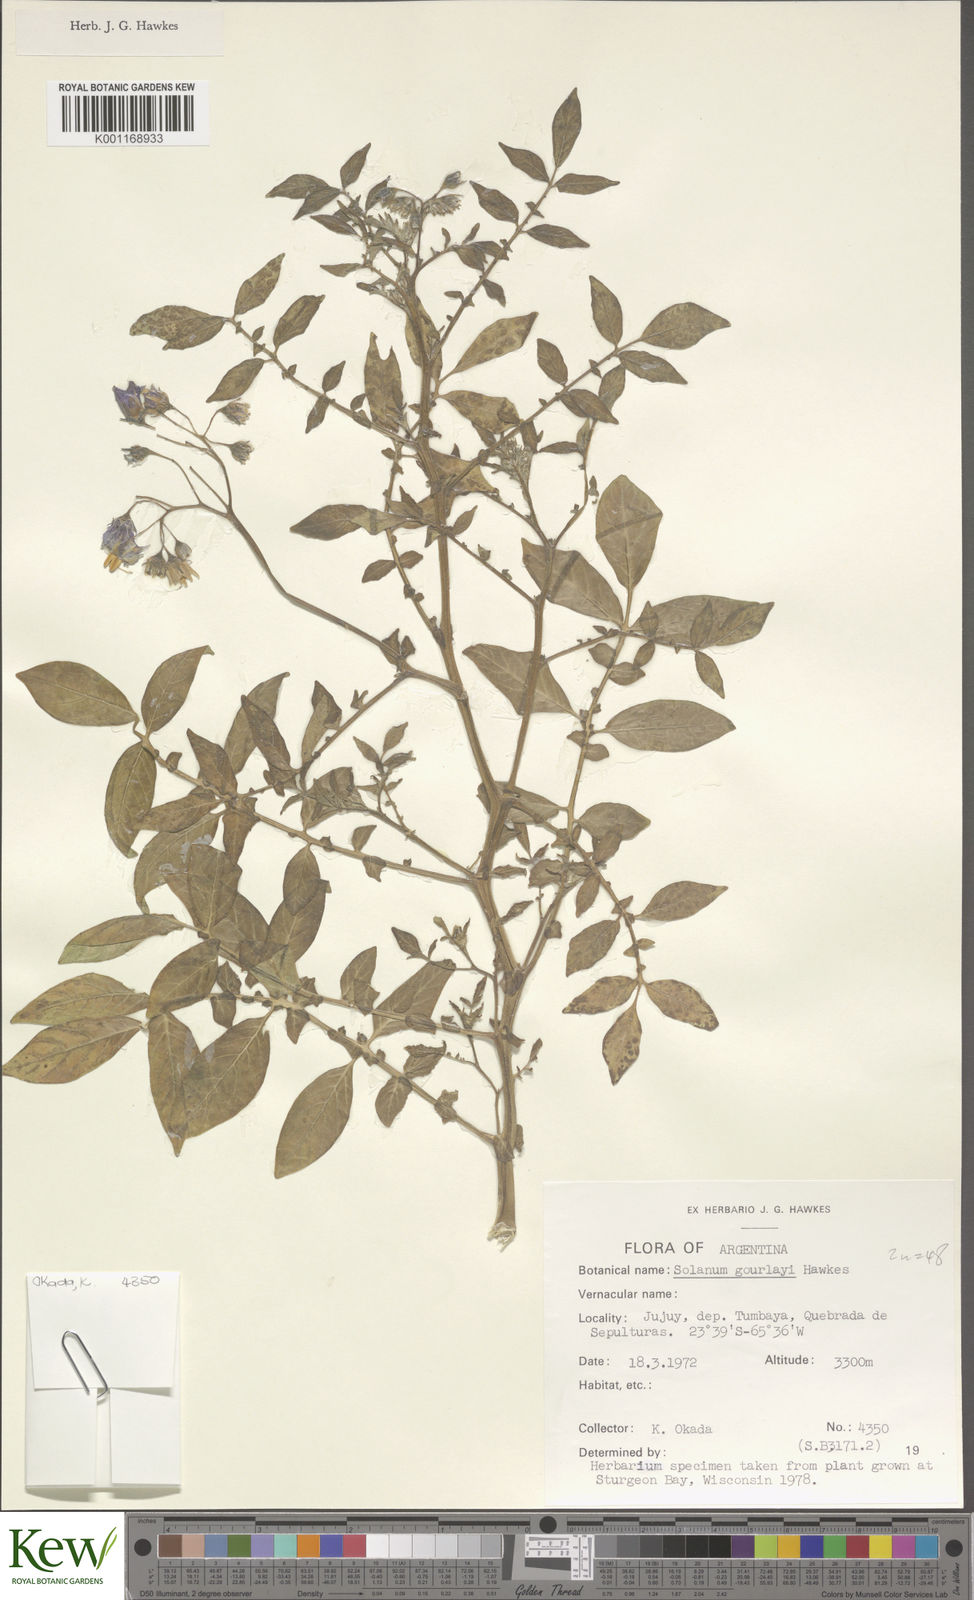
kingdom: Plantae
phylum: Tracheophyta
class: Magnoliopsida
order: Solanales
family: Solanaceae
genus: Solanum
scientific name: Solanum brevicaule
